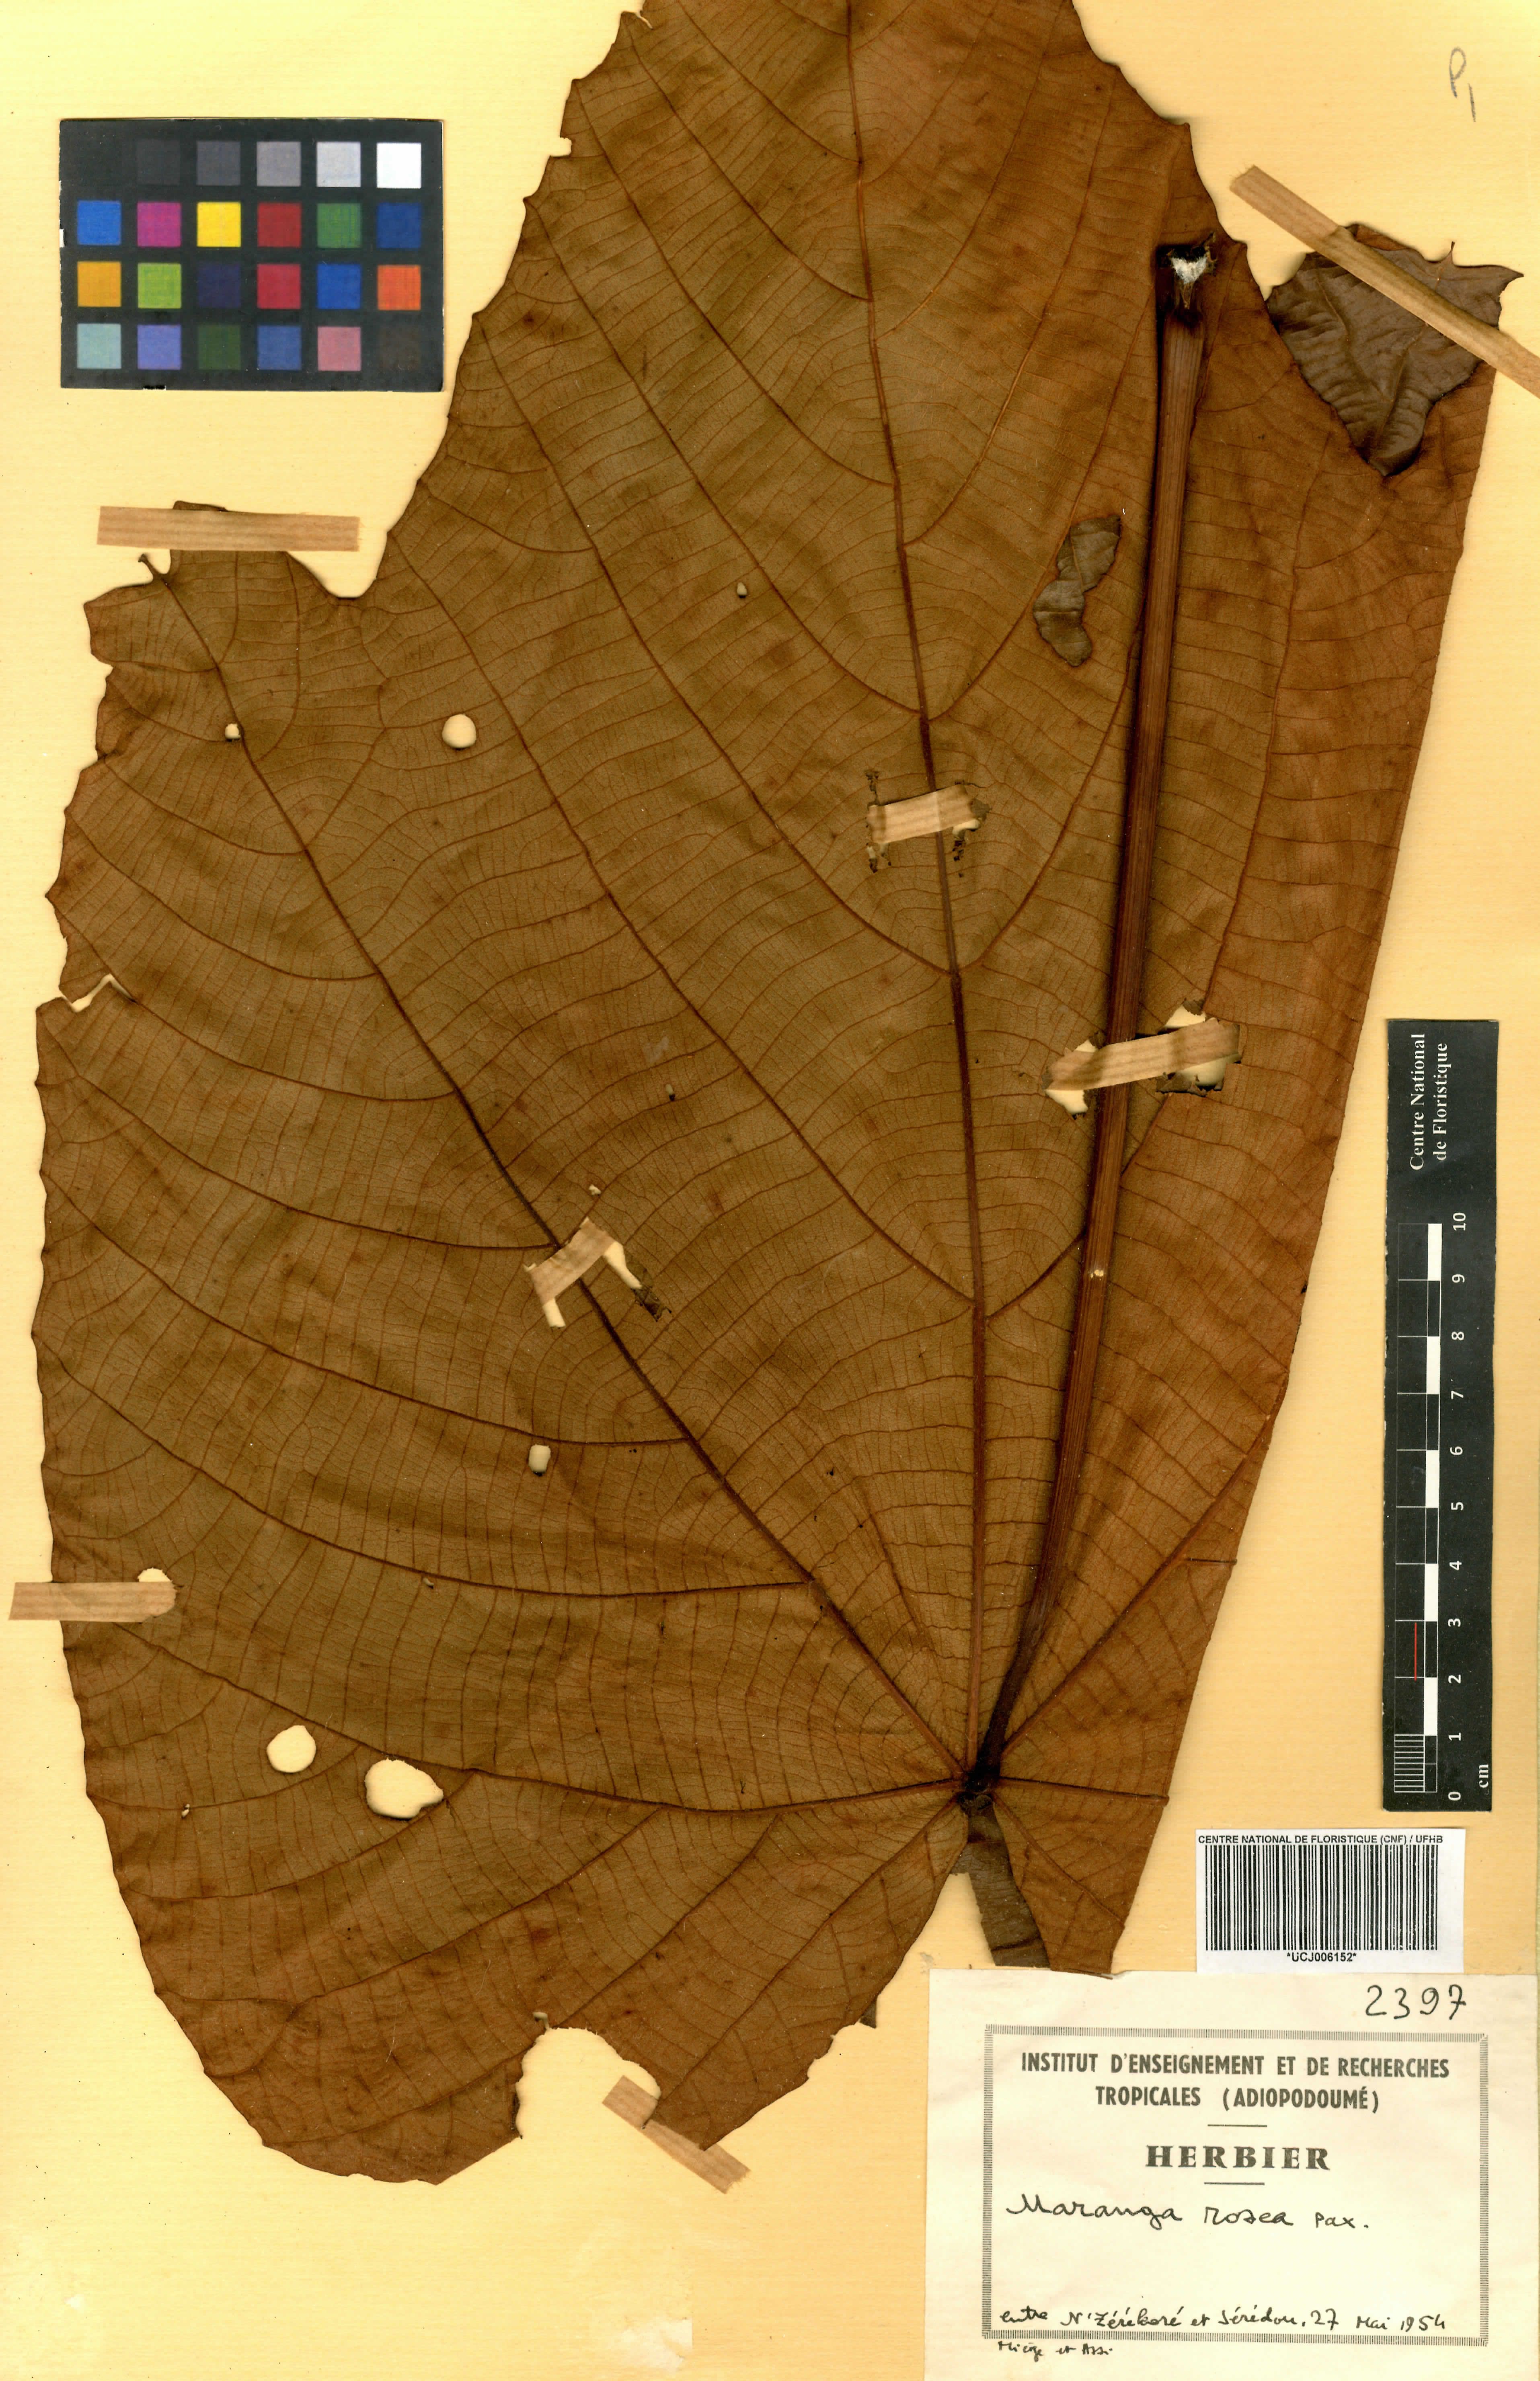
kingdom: Plantae
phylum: Tracheophyta
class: Magnoliopsida
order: Malpighiales
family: Euphorbiaceae
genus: Macaranga
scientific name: Macaranga schweinfurthii
